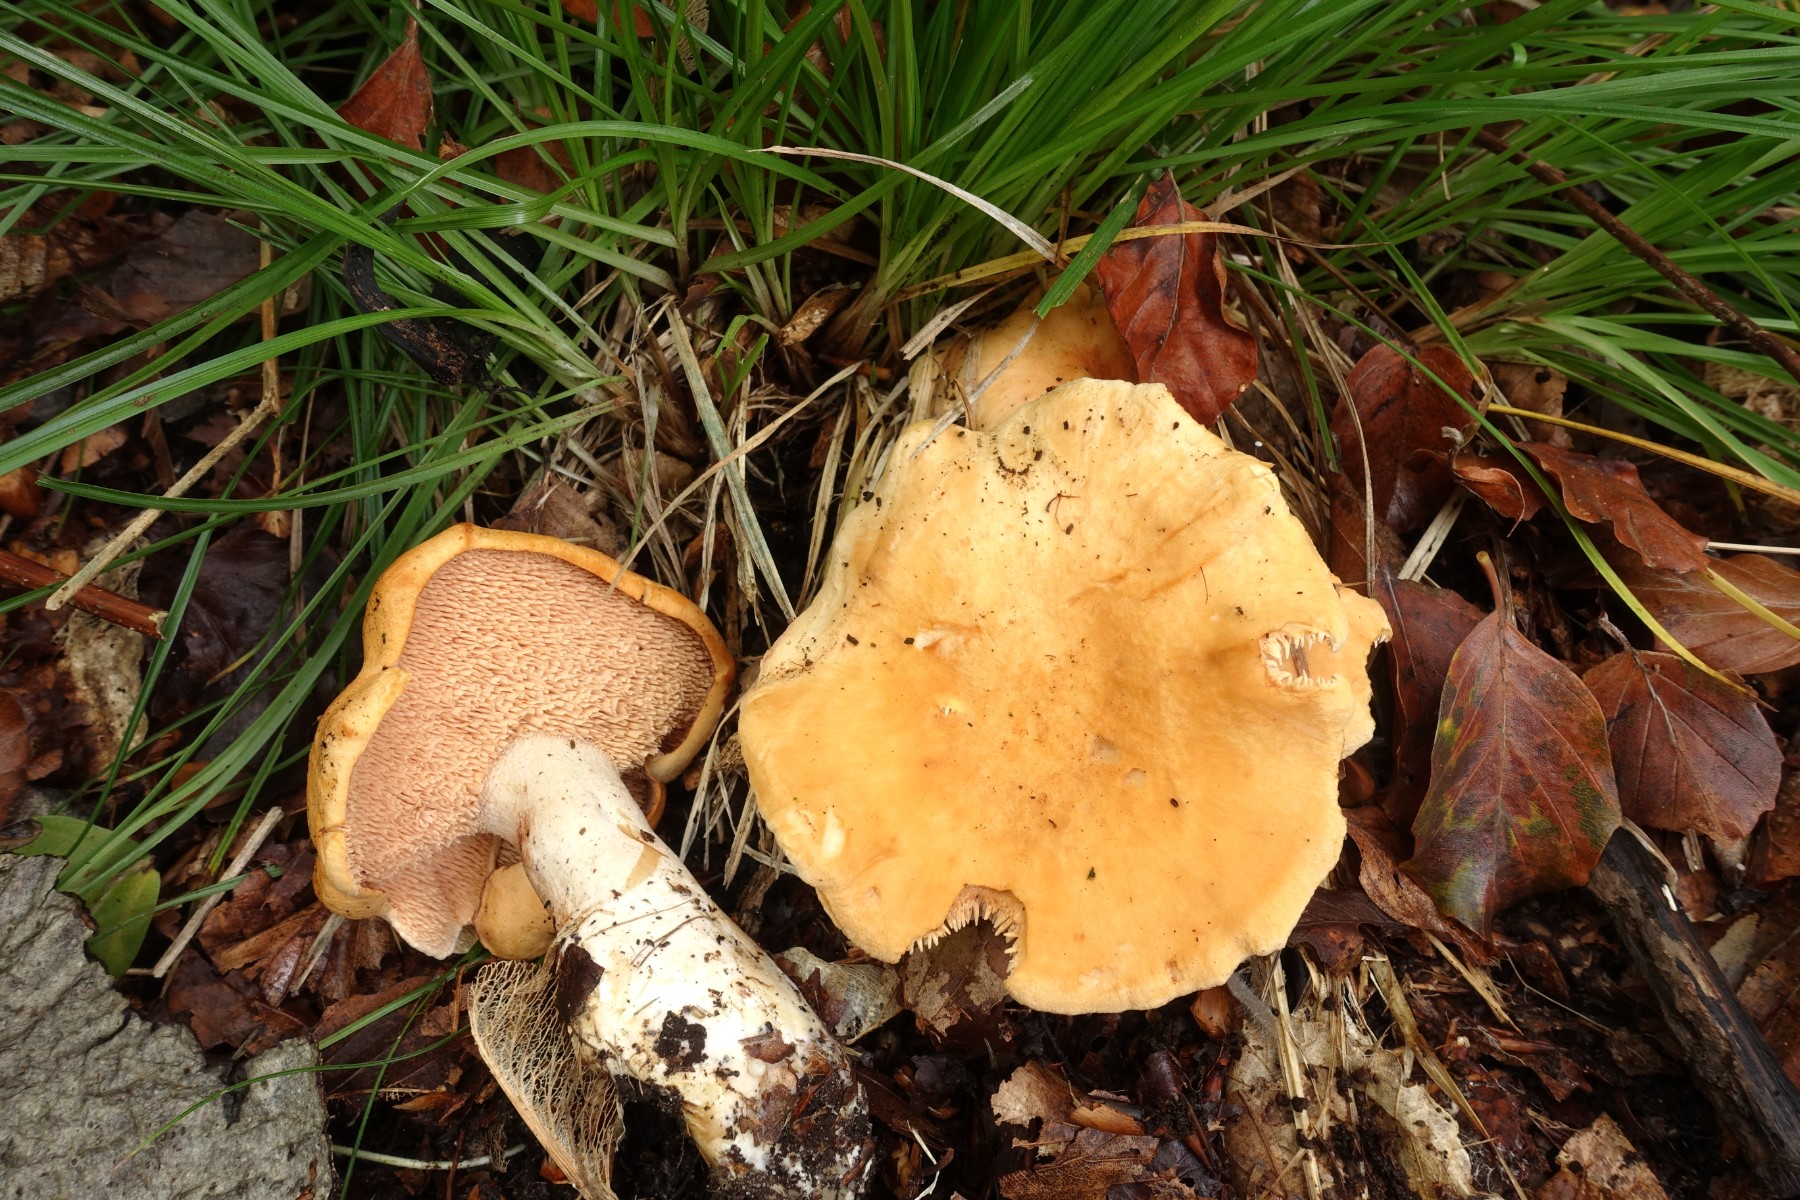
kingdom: Fungi
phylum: Basidiomycota
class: Agaricomycetes
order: Cantharellales
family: Hydnaceae
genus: Hydnum
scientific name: Hydnum repandum
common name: almindelig pigsvamp
